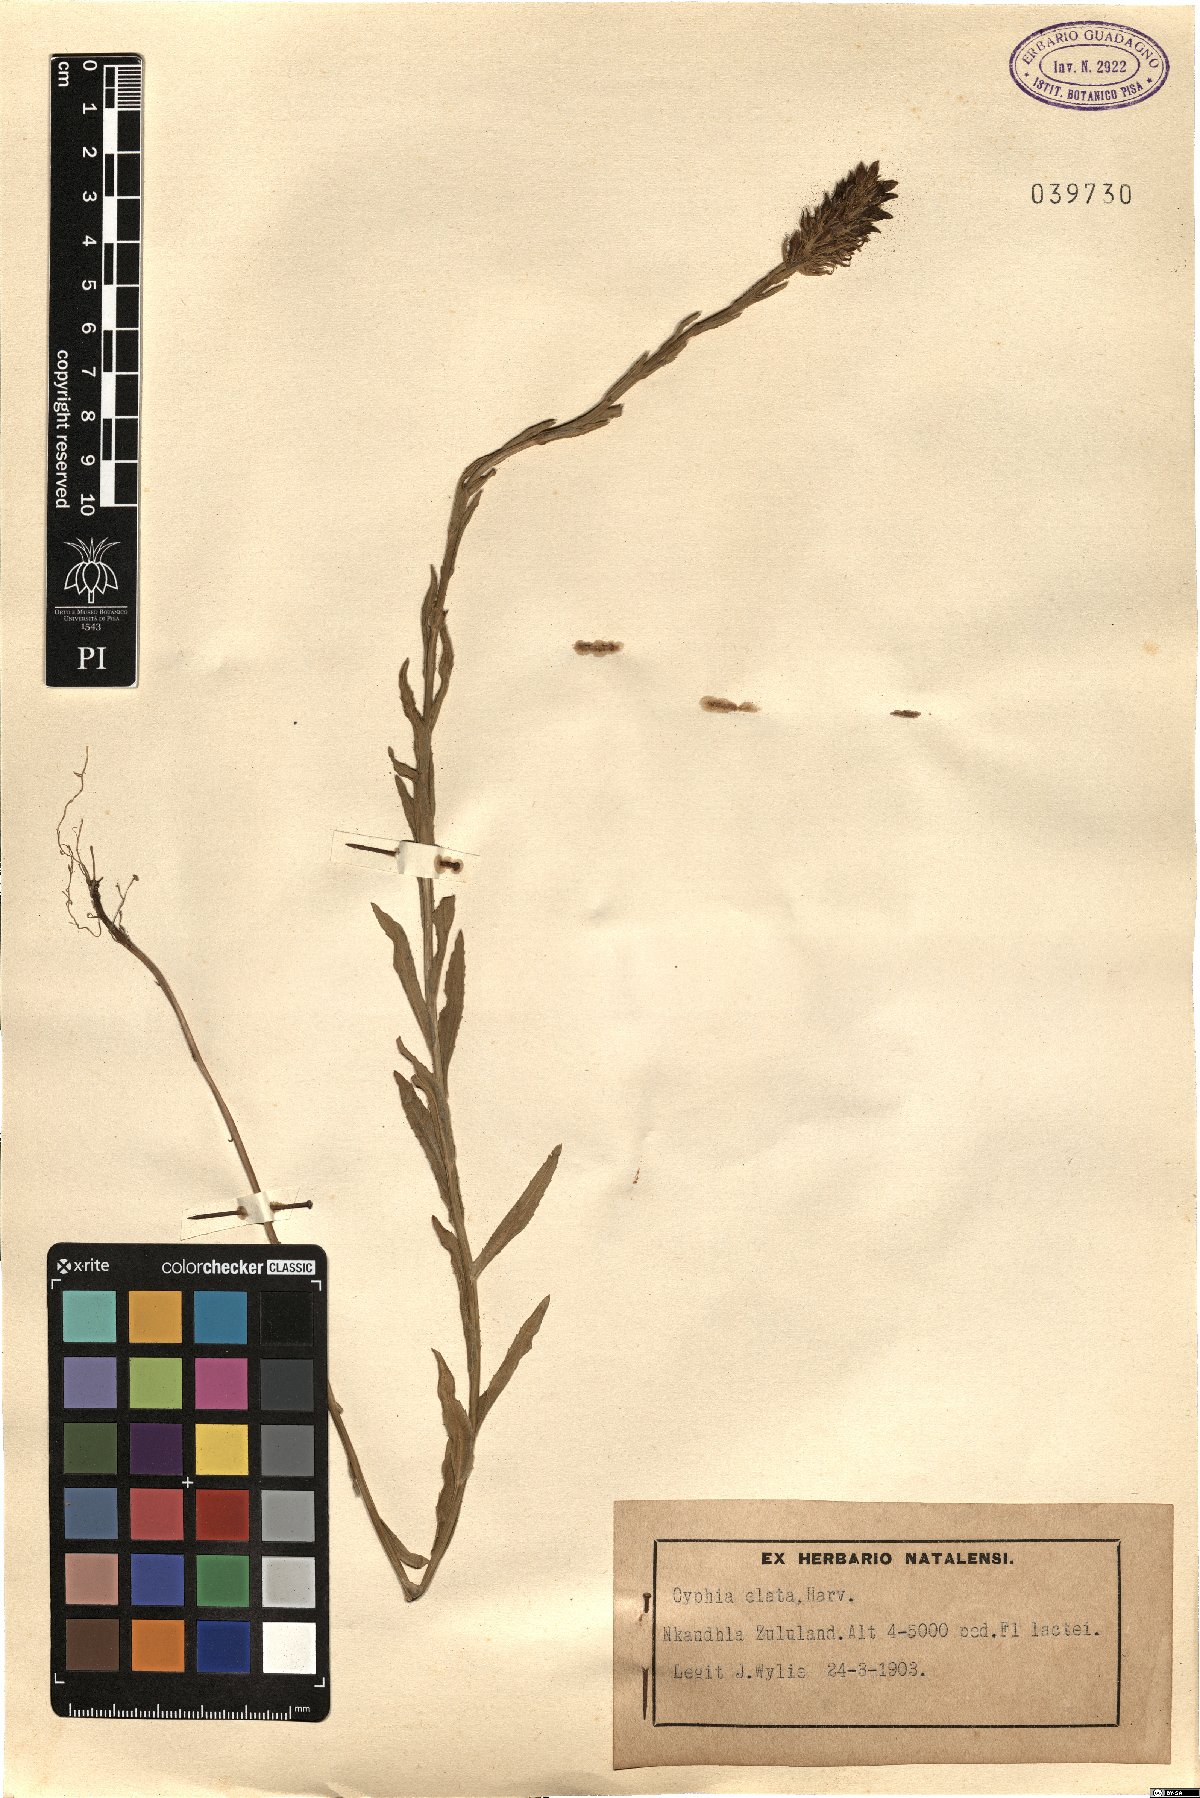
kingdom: Plantae
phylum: Tracheophyta
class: Magnoliopsida
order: Asterales
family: Campanulaceae
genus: Cyphia
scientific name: Cyphia elata
